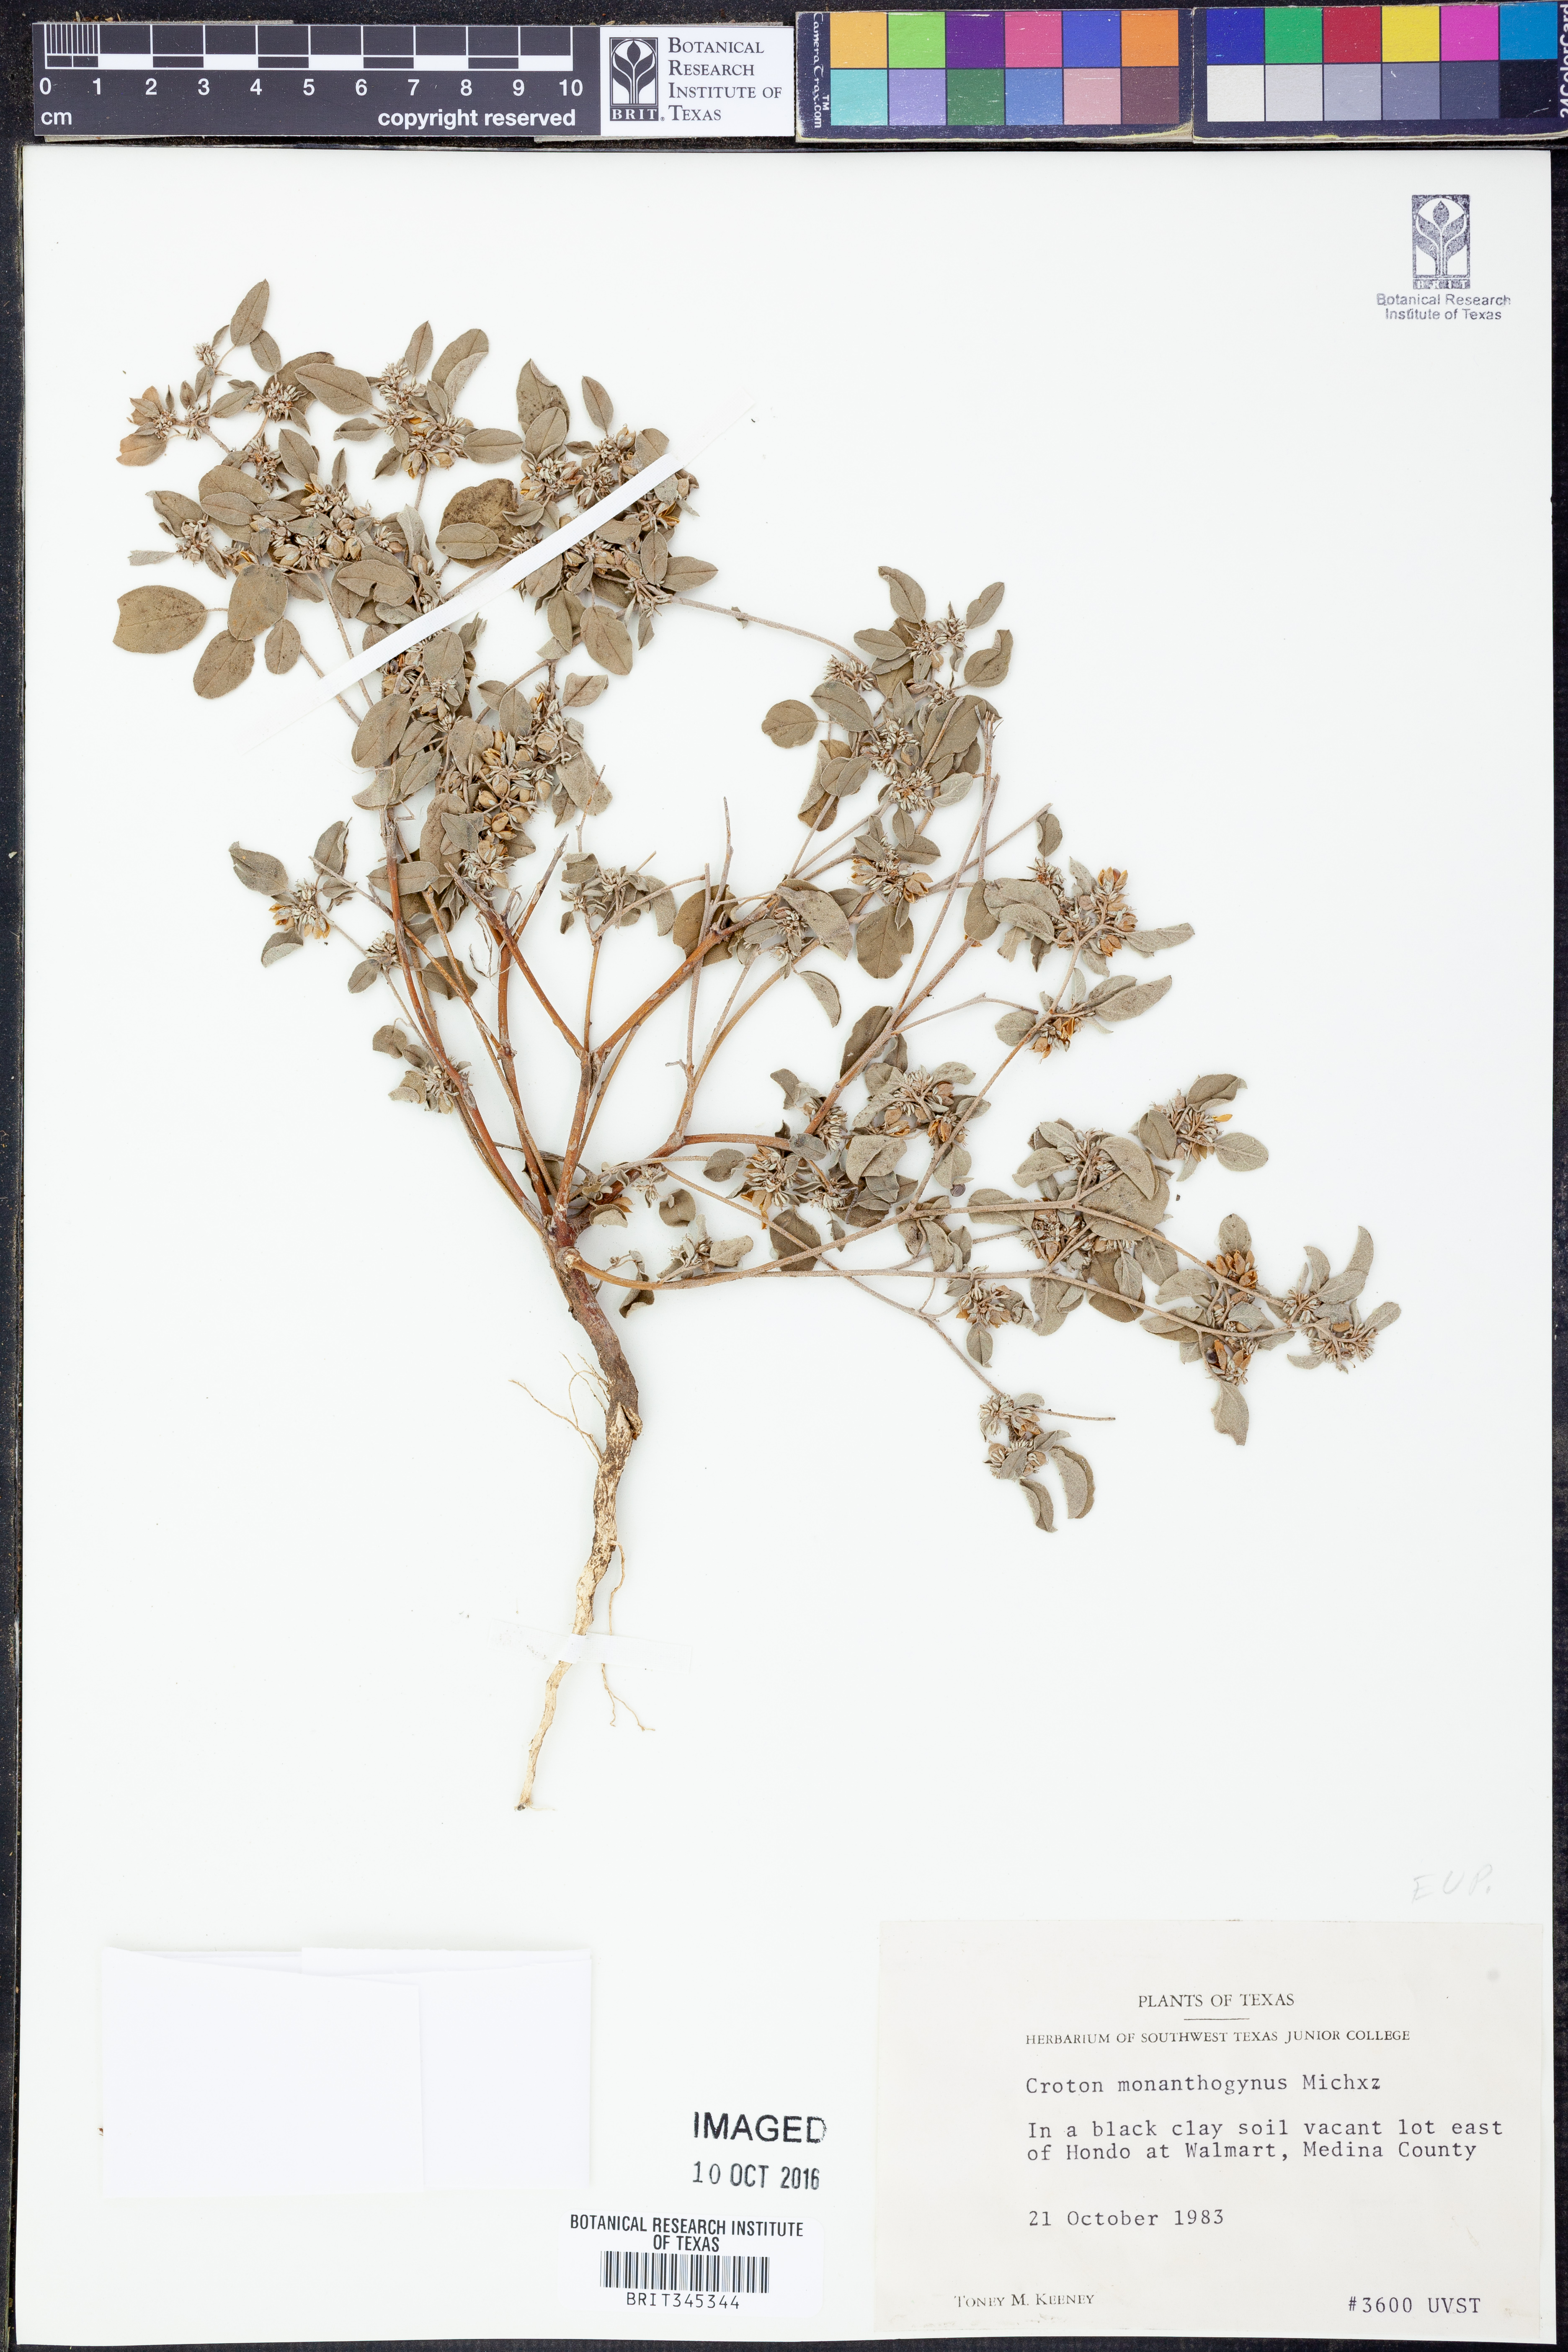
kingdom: Plantae
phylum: Tracheophyta
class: Magnoliopsida
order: Malpighiales
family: Euphorbiaceae
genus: Croton
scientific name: Croton monanthogynus
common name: One-seed croton
